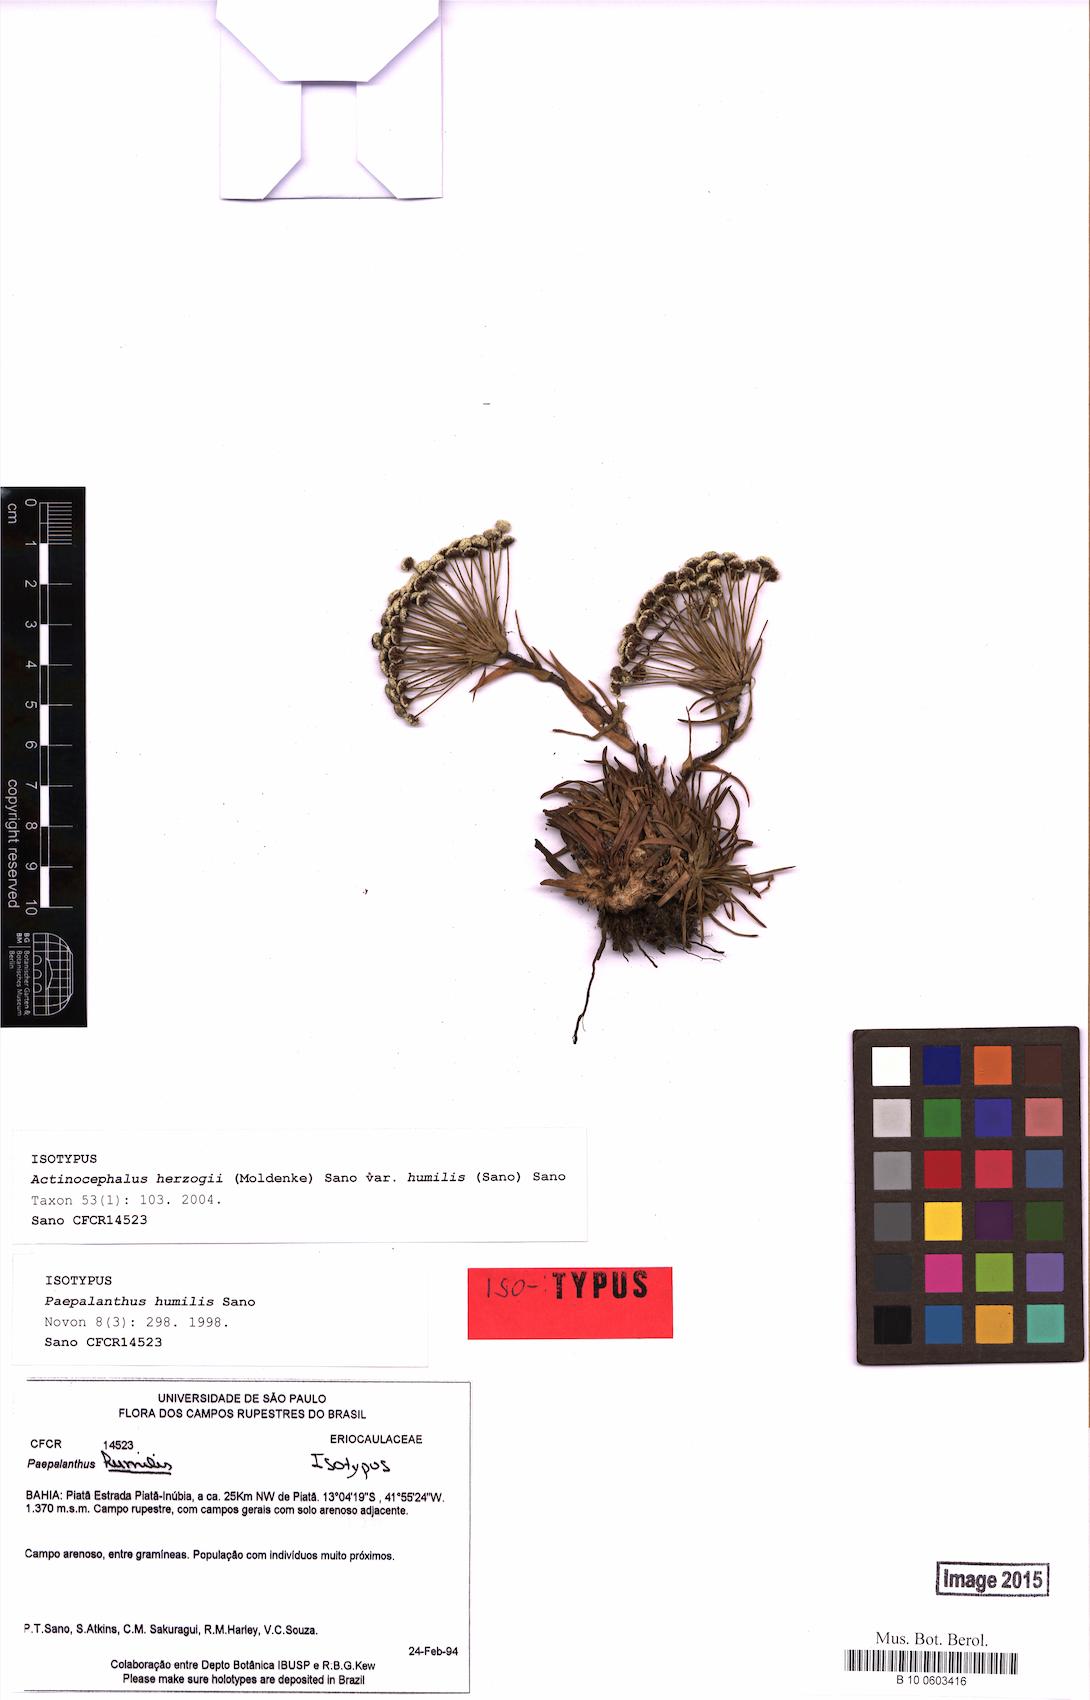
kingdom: Plantae
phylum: Tracheophyta
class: Liliopsida
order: Poales
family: Eriocaulaceae
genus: Paepalanthus
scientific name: Paepalanthus herzogii
